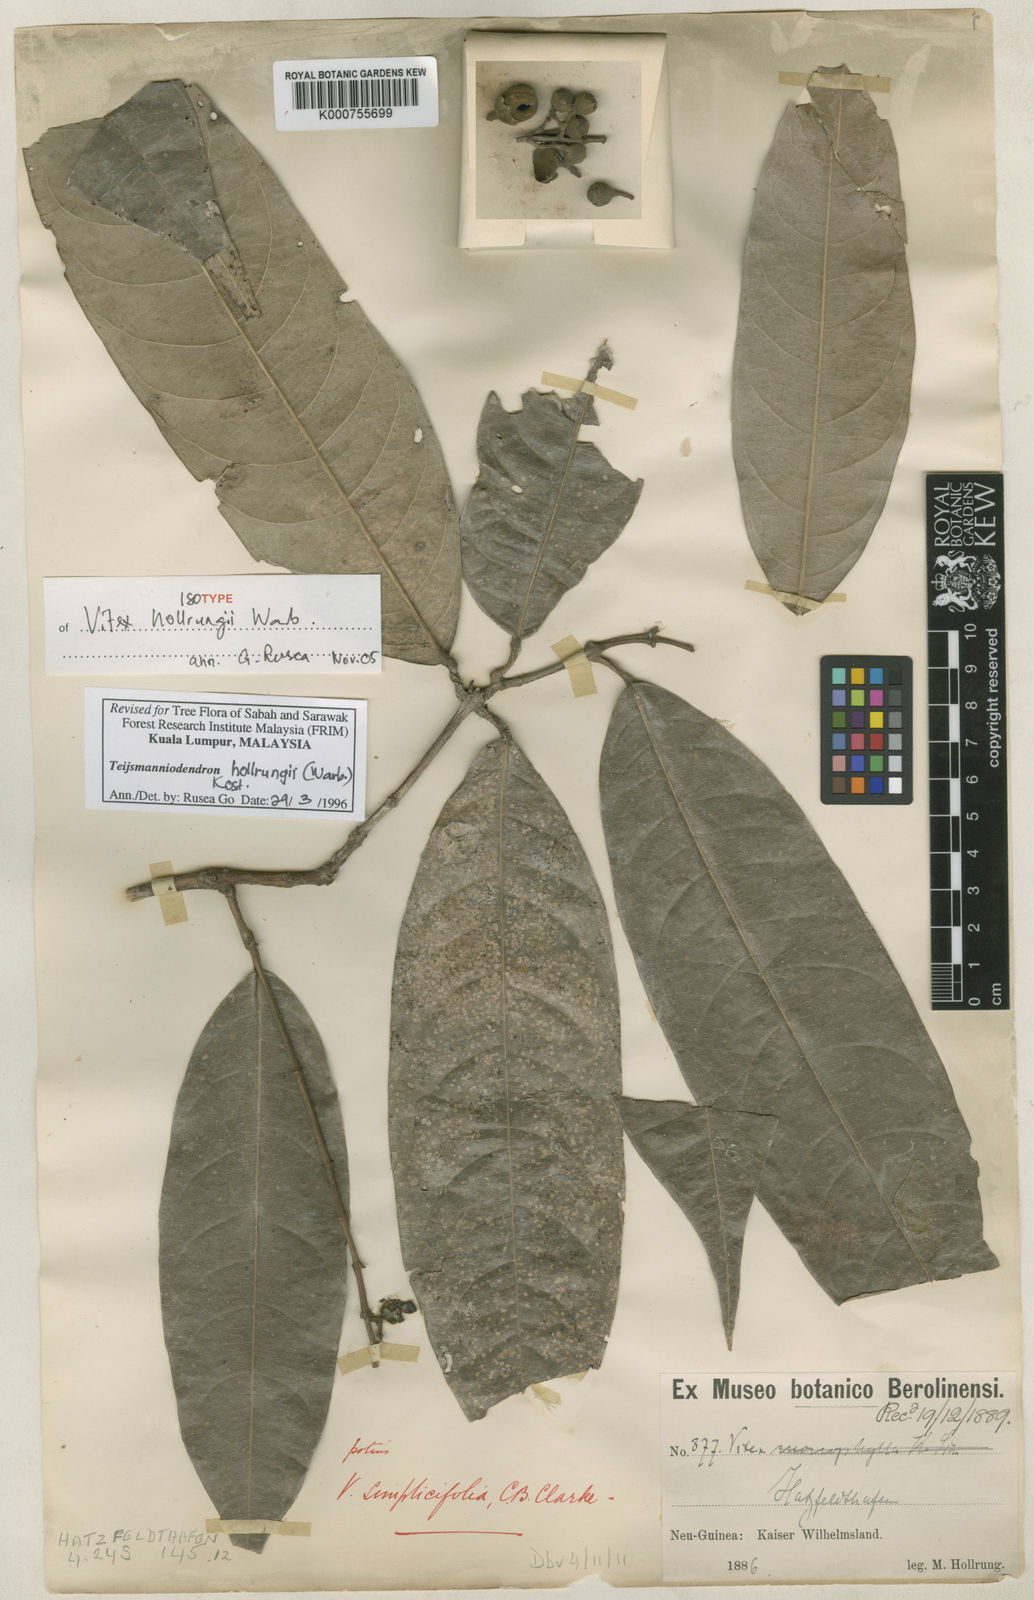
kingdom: Plantae
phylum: Tracheophyta
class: Magnoliopsida
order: Lamiales
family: Lamiaceae
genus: Teijsmanniodendron
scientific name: Teijsmanniodendron hollrungii
